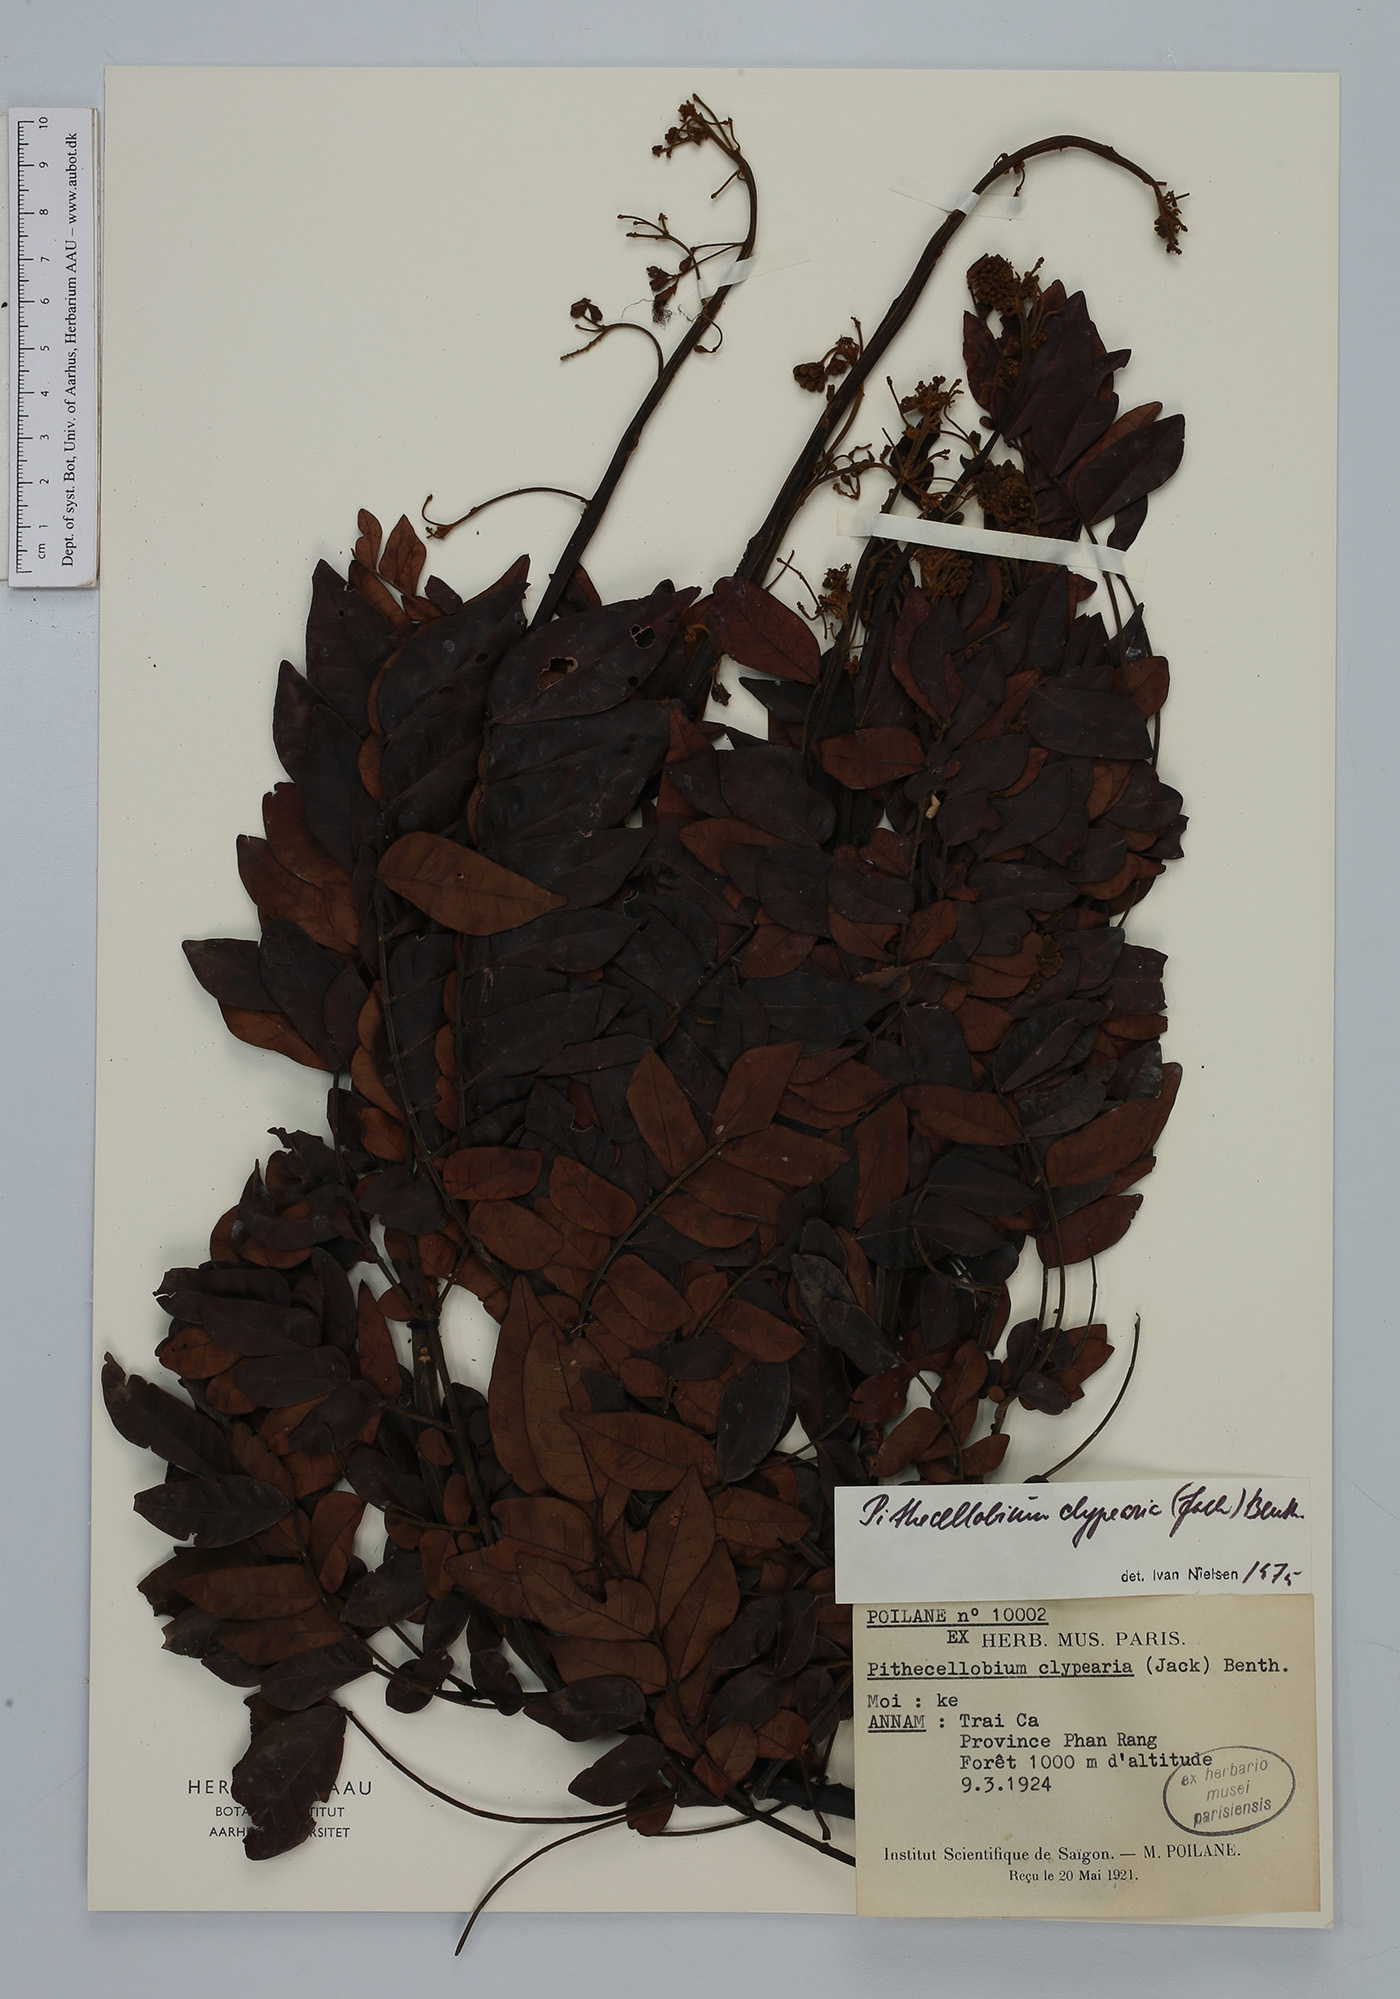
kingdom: Plantae
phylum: Tracheophyta
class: Magnoliopsida
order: Fabales
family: Fabaceae
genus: Archidendron
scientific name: Archidendron clypearia
